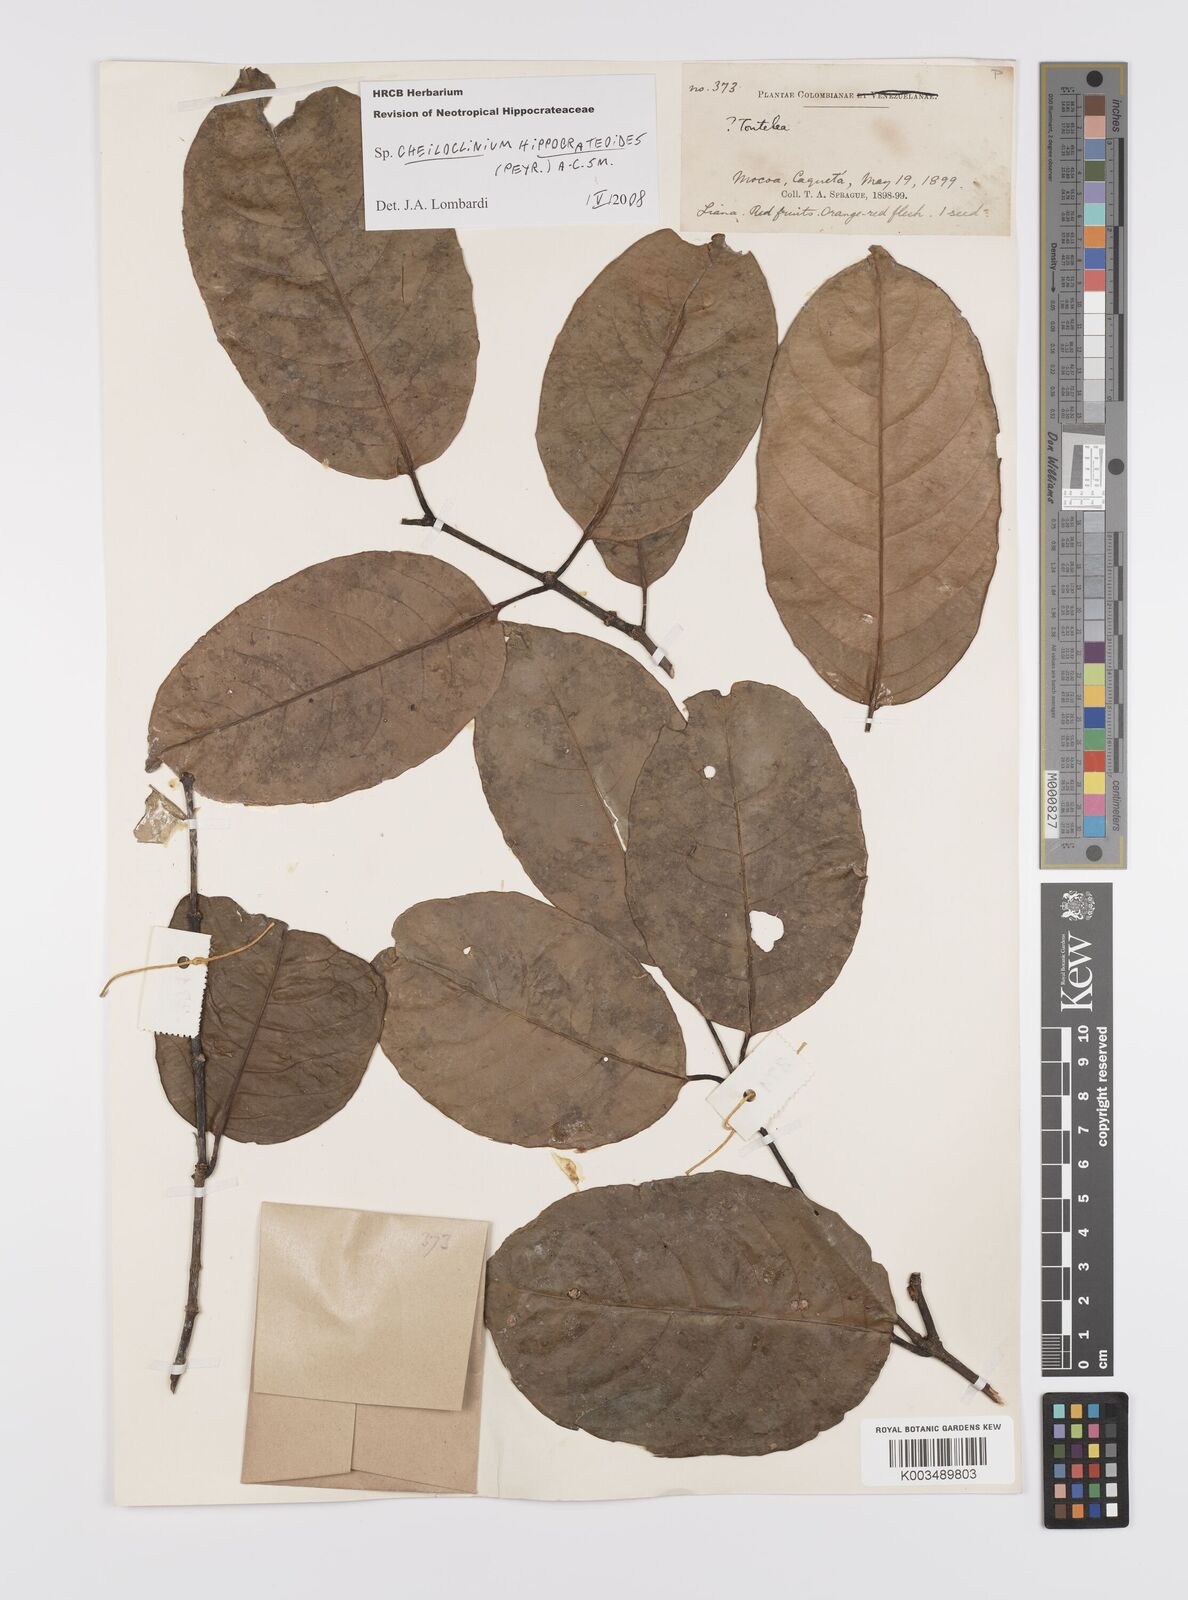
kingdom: Plantae
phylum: Tracheophyta
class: Magnoliopsida
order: Celastrales
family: Celastraceae
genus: Cheiloclinium
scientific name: Cheiloclinium hippocrateoides
